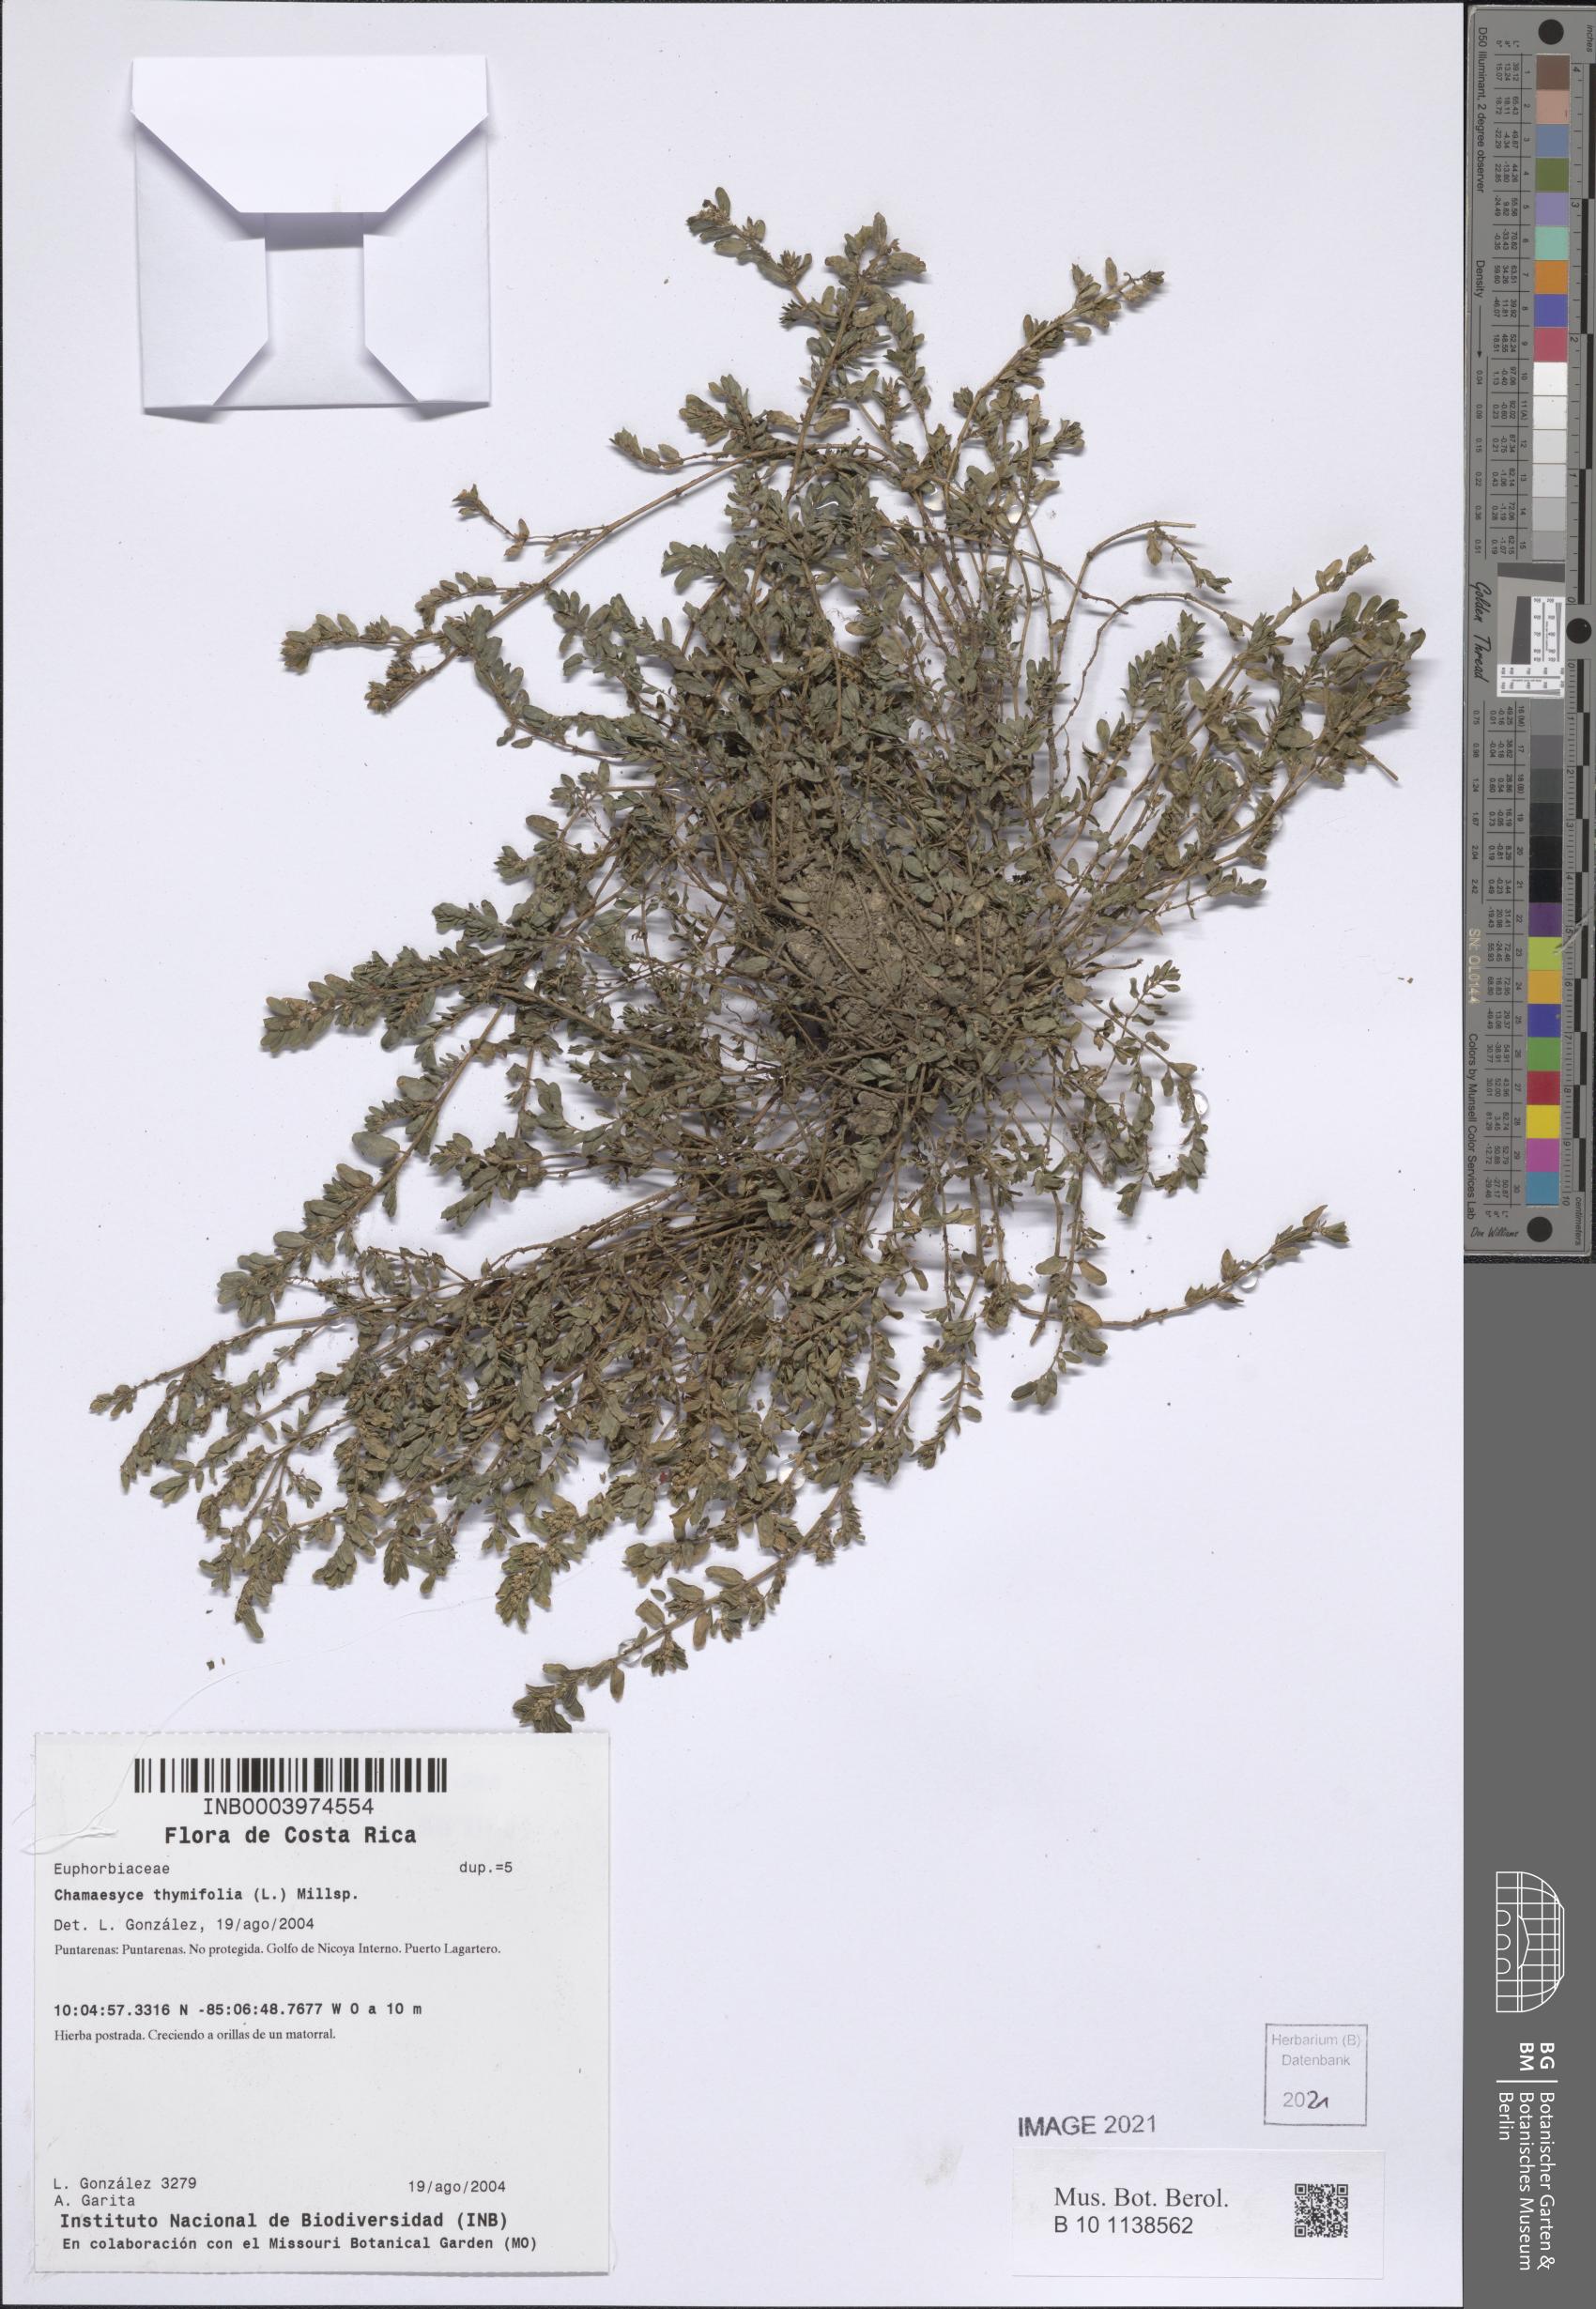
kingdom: Plantae
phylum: Tracheophyta
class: Magnoliopsida
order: Malpighiales
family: Euphorbiaceae
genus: Euphorbia
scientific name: Euphorbia scordiifolia
